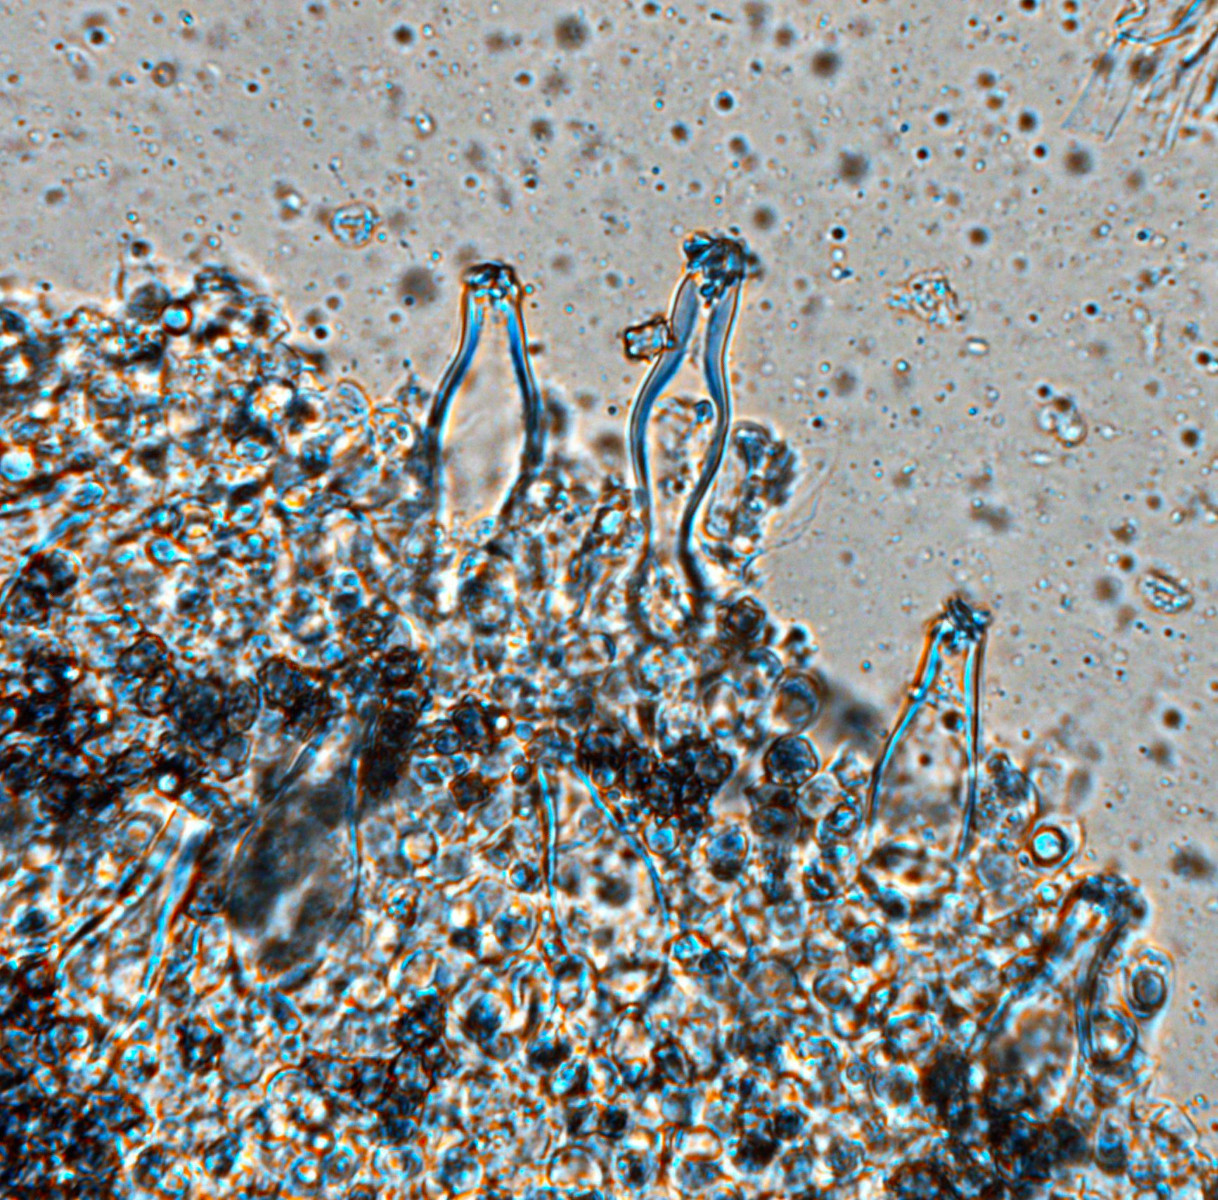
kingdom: Fungi
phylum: Basidiomycota
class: Agaricomycetes
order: Agaricales
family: Inocybaceae
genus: Inocybe
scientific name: Inocybe mixtilis
